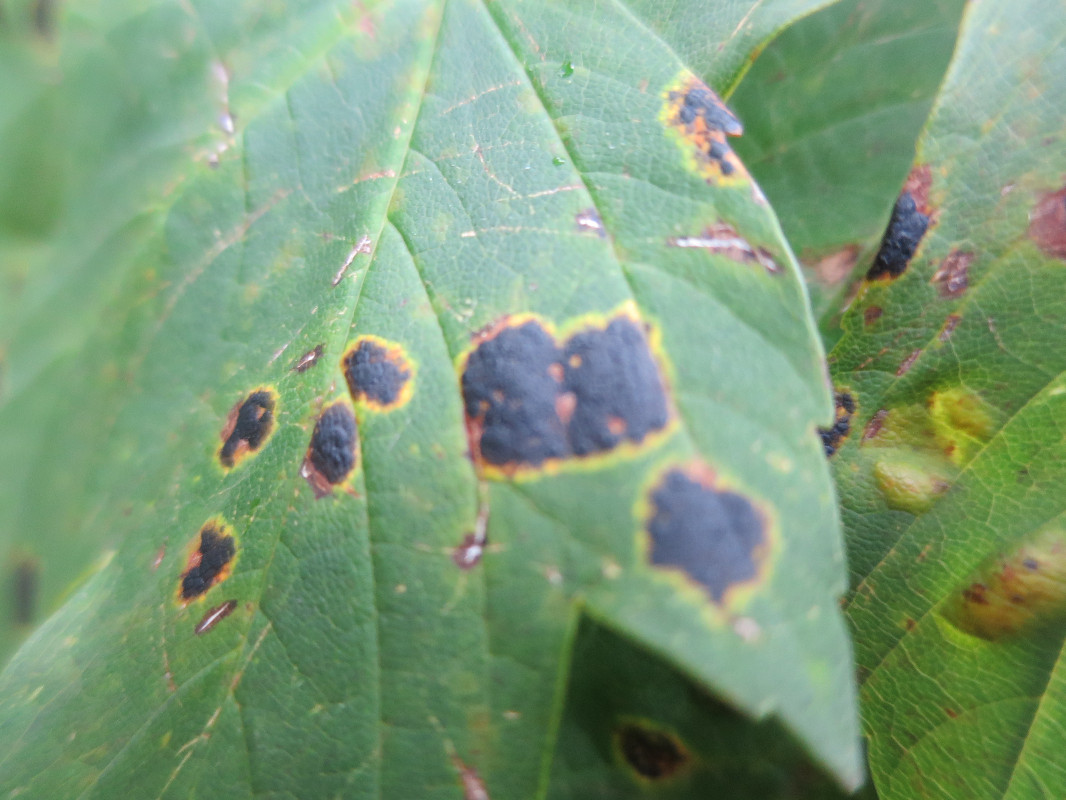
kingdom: Fungi
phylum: Ascomycota
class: Leotiomycetes
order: Rhytismatales
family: Rhytismataceae
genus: Rhytisma
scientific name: Rhytisma acerinum
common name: ahorn-rynkeplet
